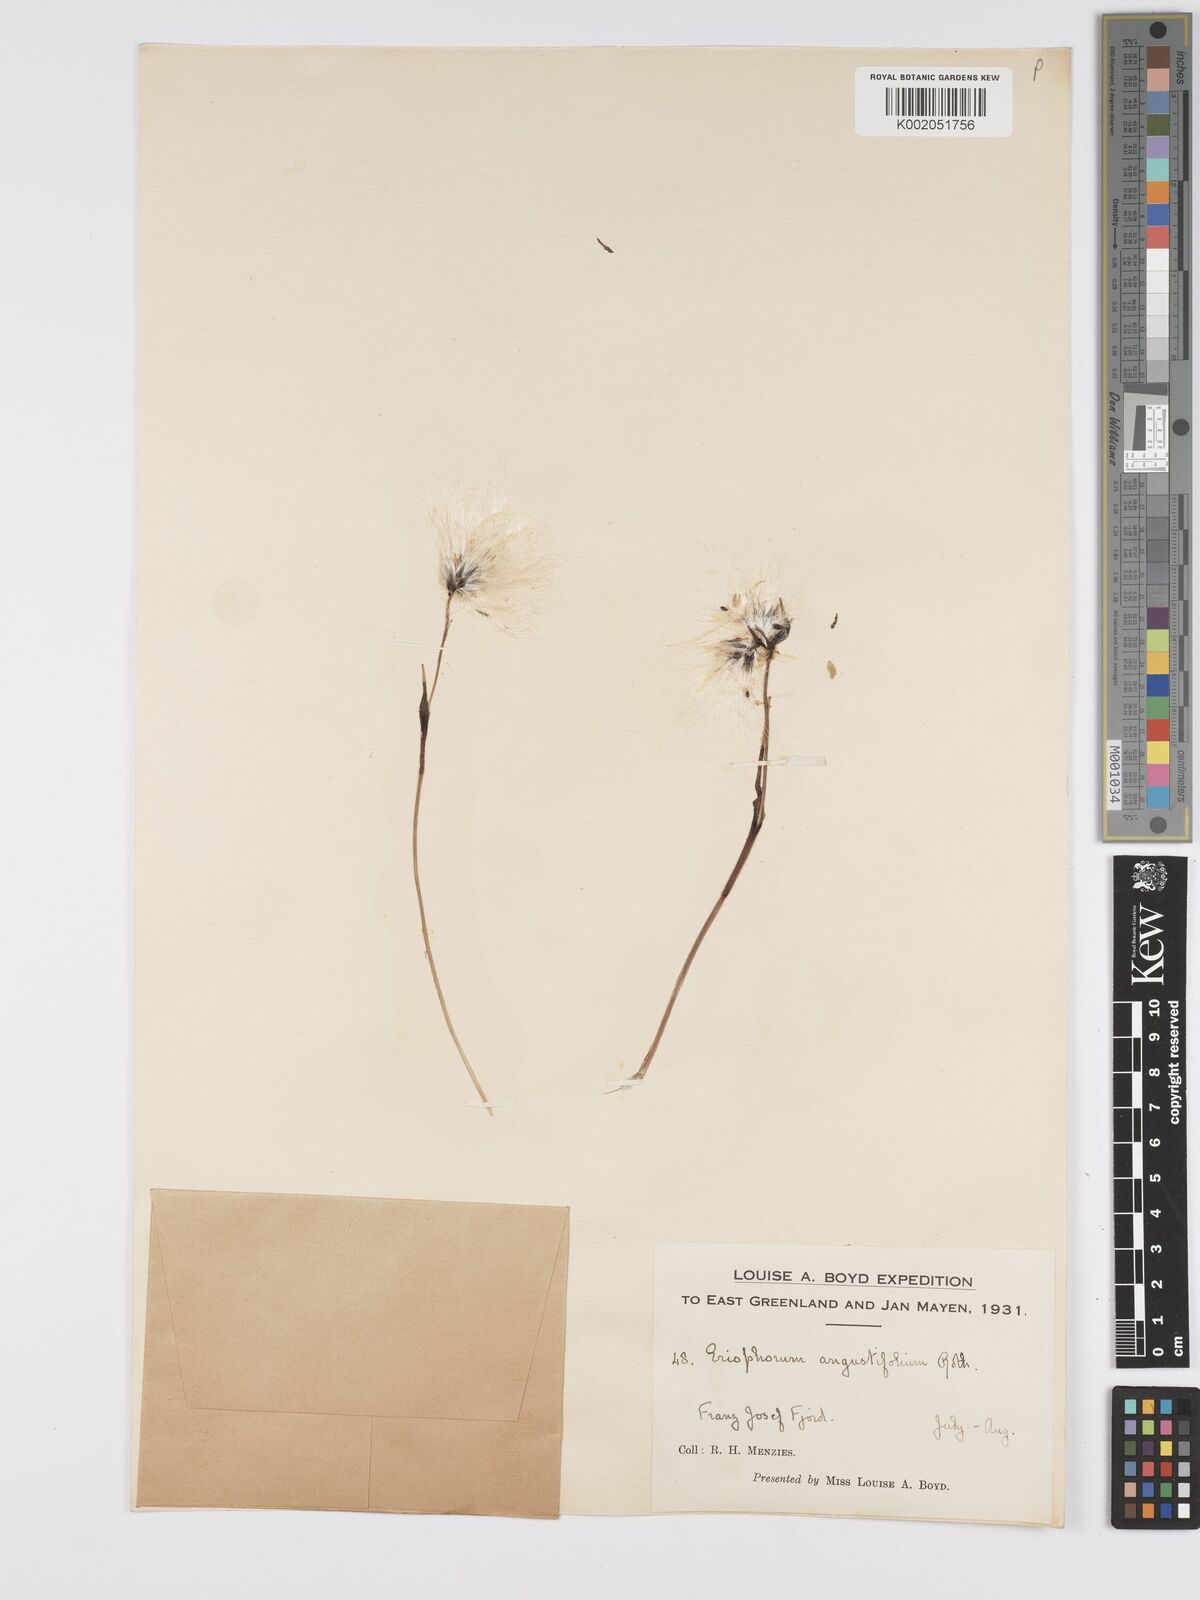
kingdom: Plantae
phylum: Tracheophyta
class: Liliopsida
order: Poales
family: Cyperaceae
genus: Eriophorum
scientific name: Eriophorum angustifolium
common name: Common cottongrass
